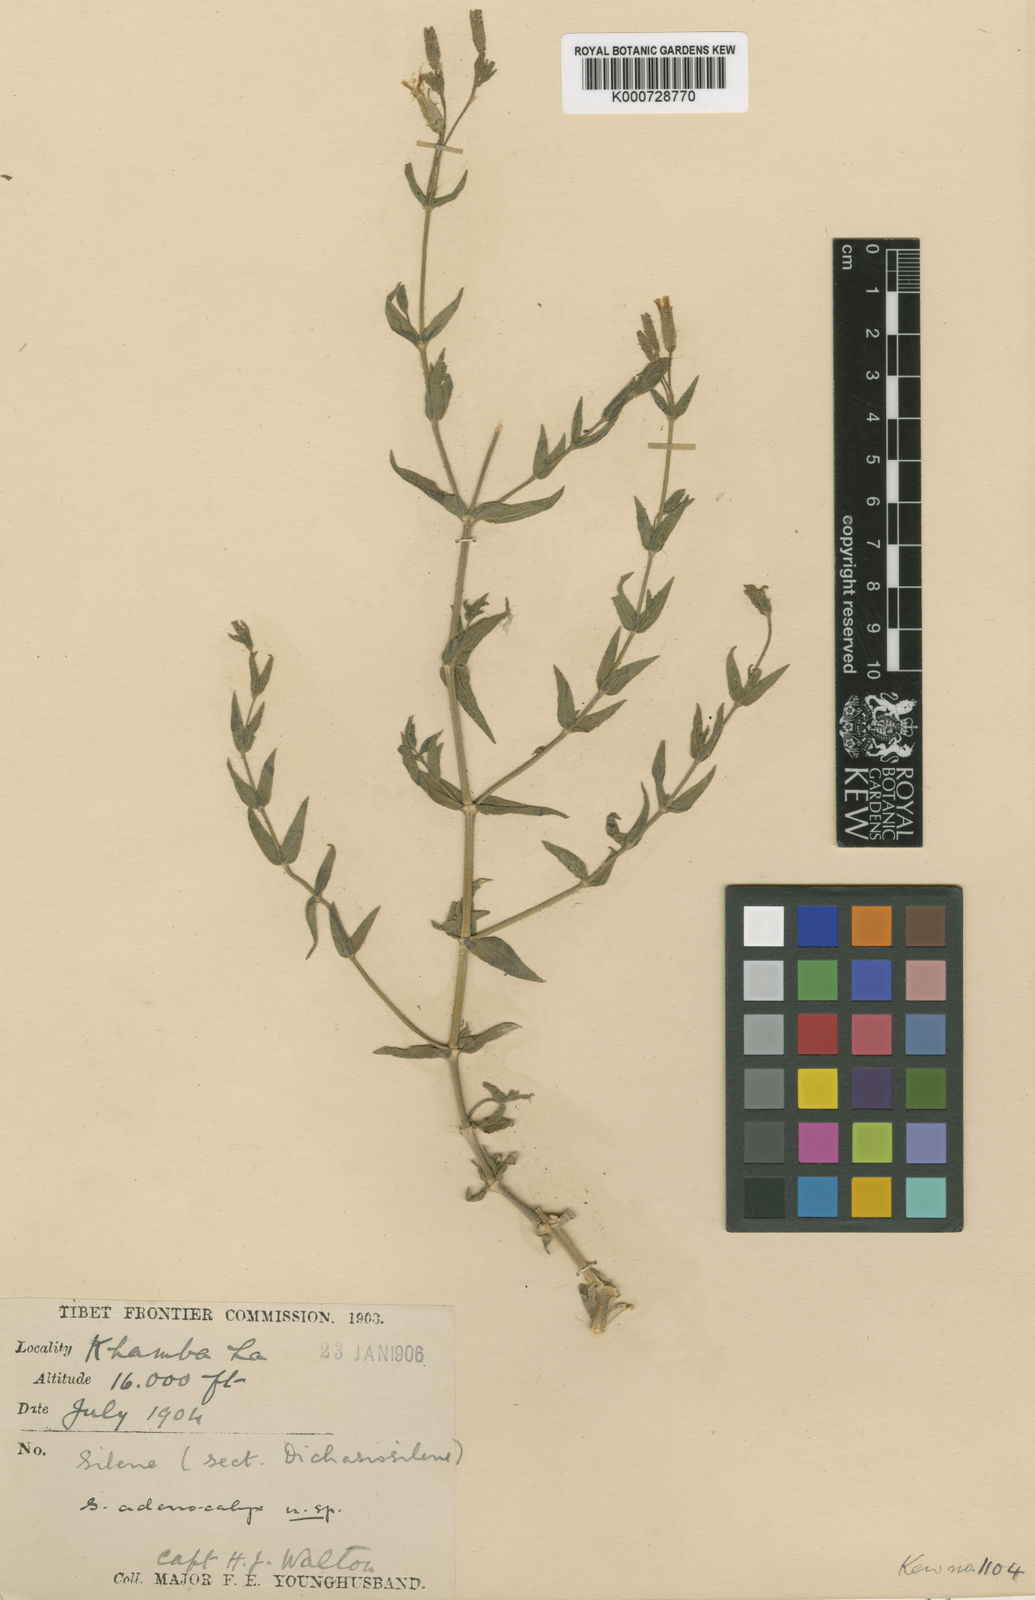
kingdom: Plantae
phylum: Tracheophyta
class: Magnoliopsida
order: Caryophyllales
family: Caryophyllaceae
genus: Silene
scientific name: Silene adenocalyx
